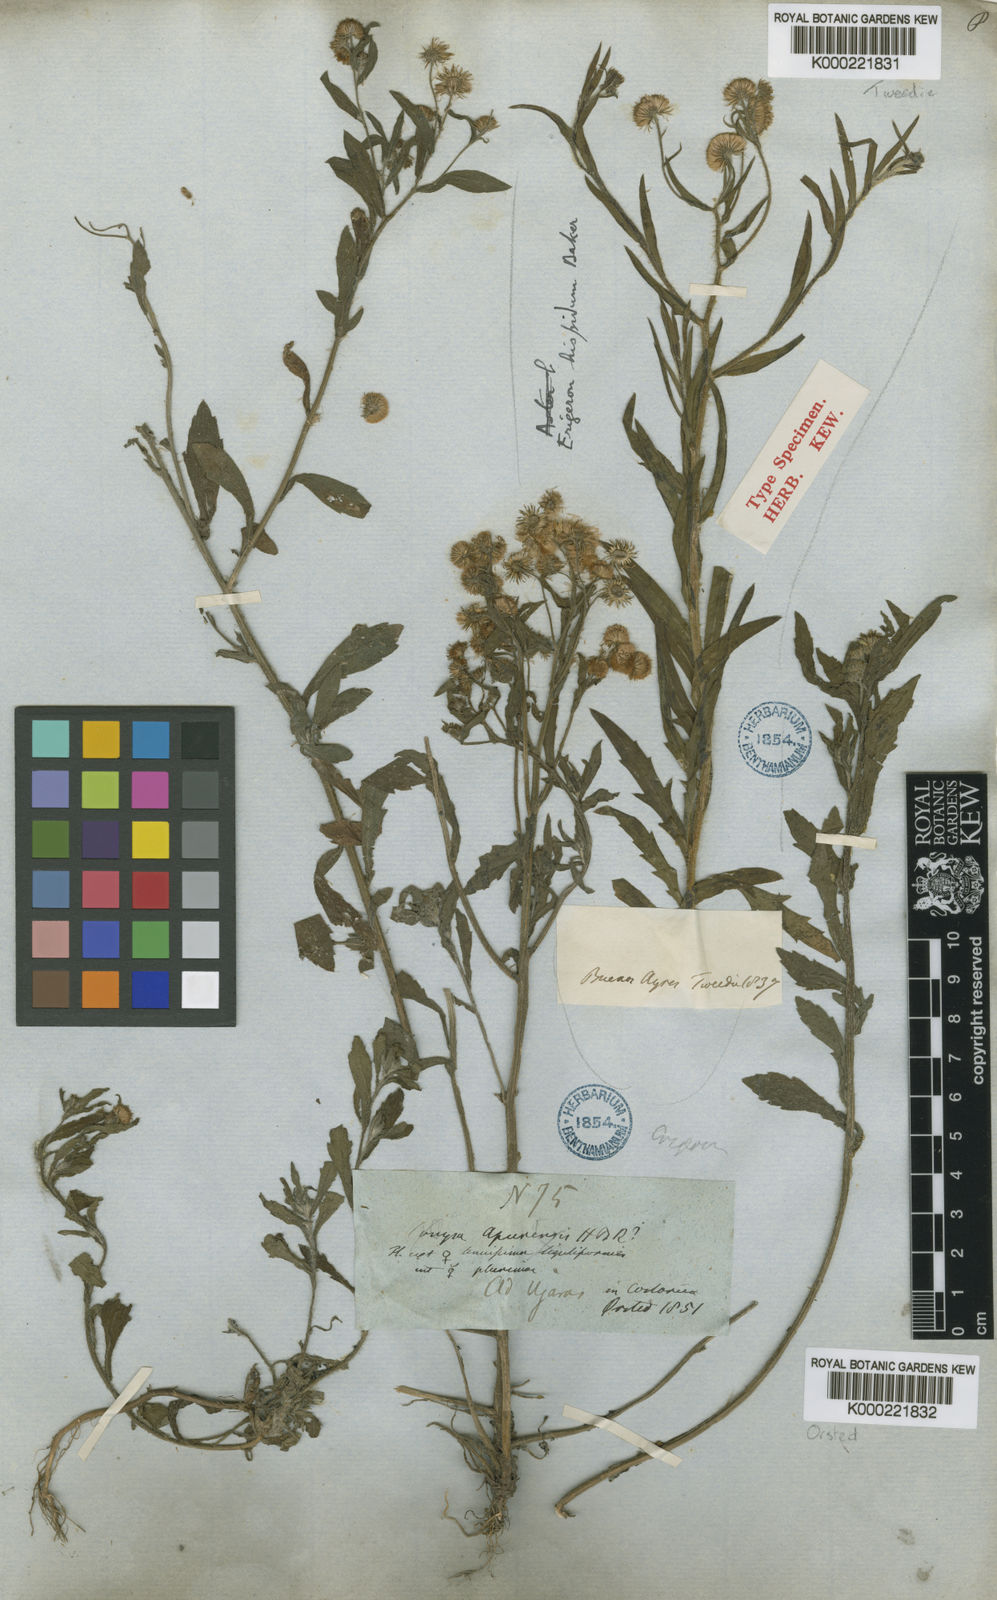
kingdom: Plantae
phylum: Tracheophyta
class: Magnoliopsida
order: Asterales
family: Asteraceae
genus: Erigeron
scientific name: Erigeron
